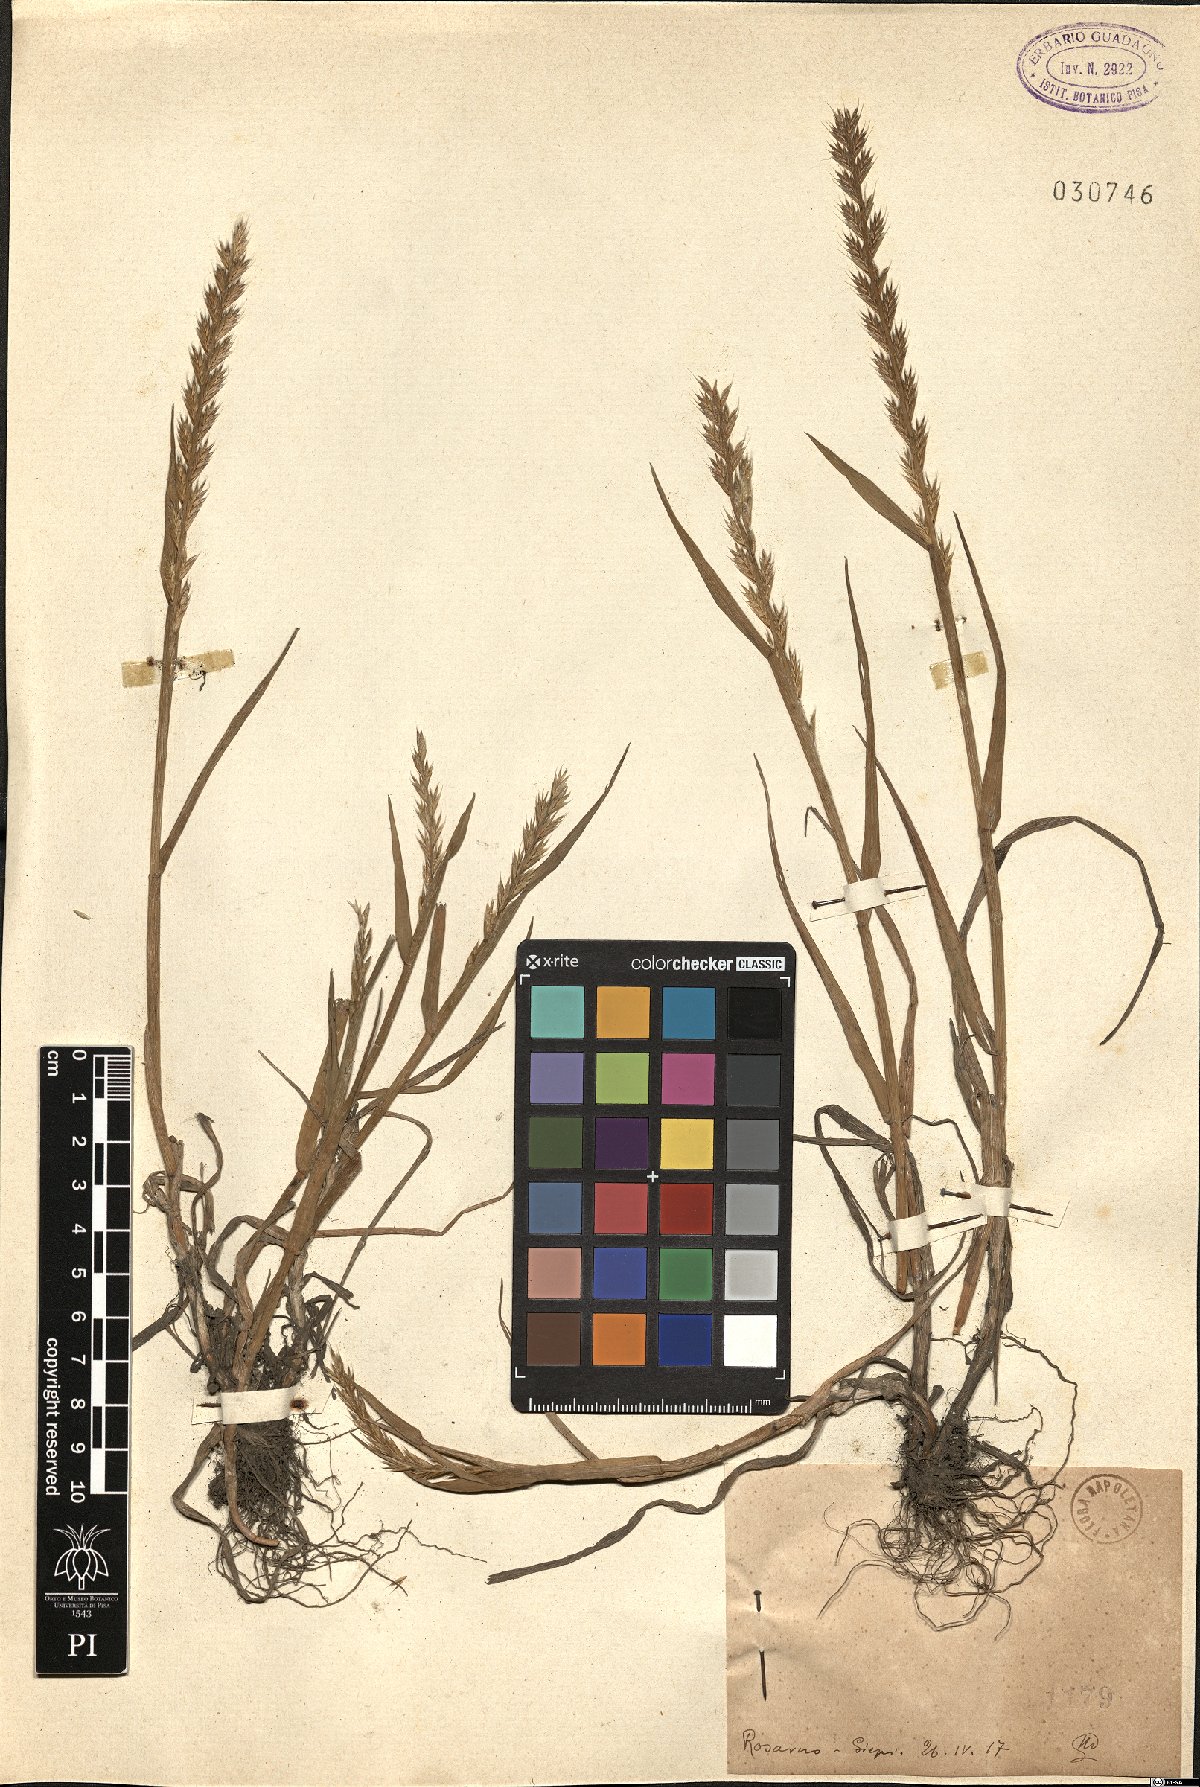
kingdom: Plantae
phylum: Tracheophyta
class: Liliopsida
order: Poales
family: Poaceae
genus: Lolium
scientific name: Lolium
